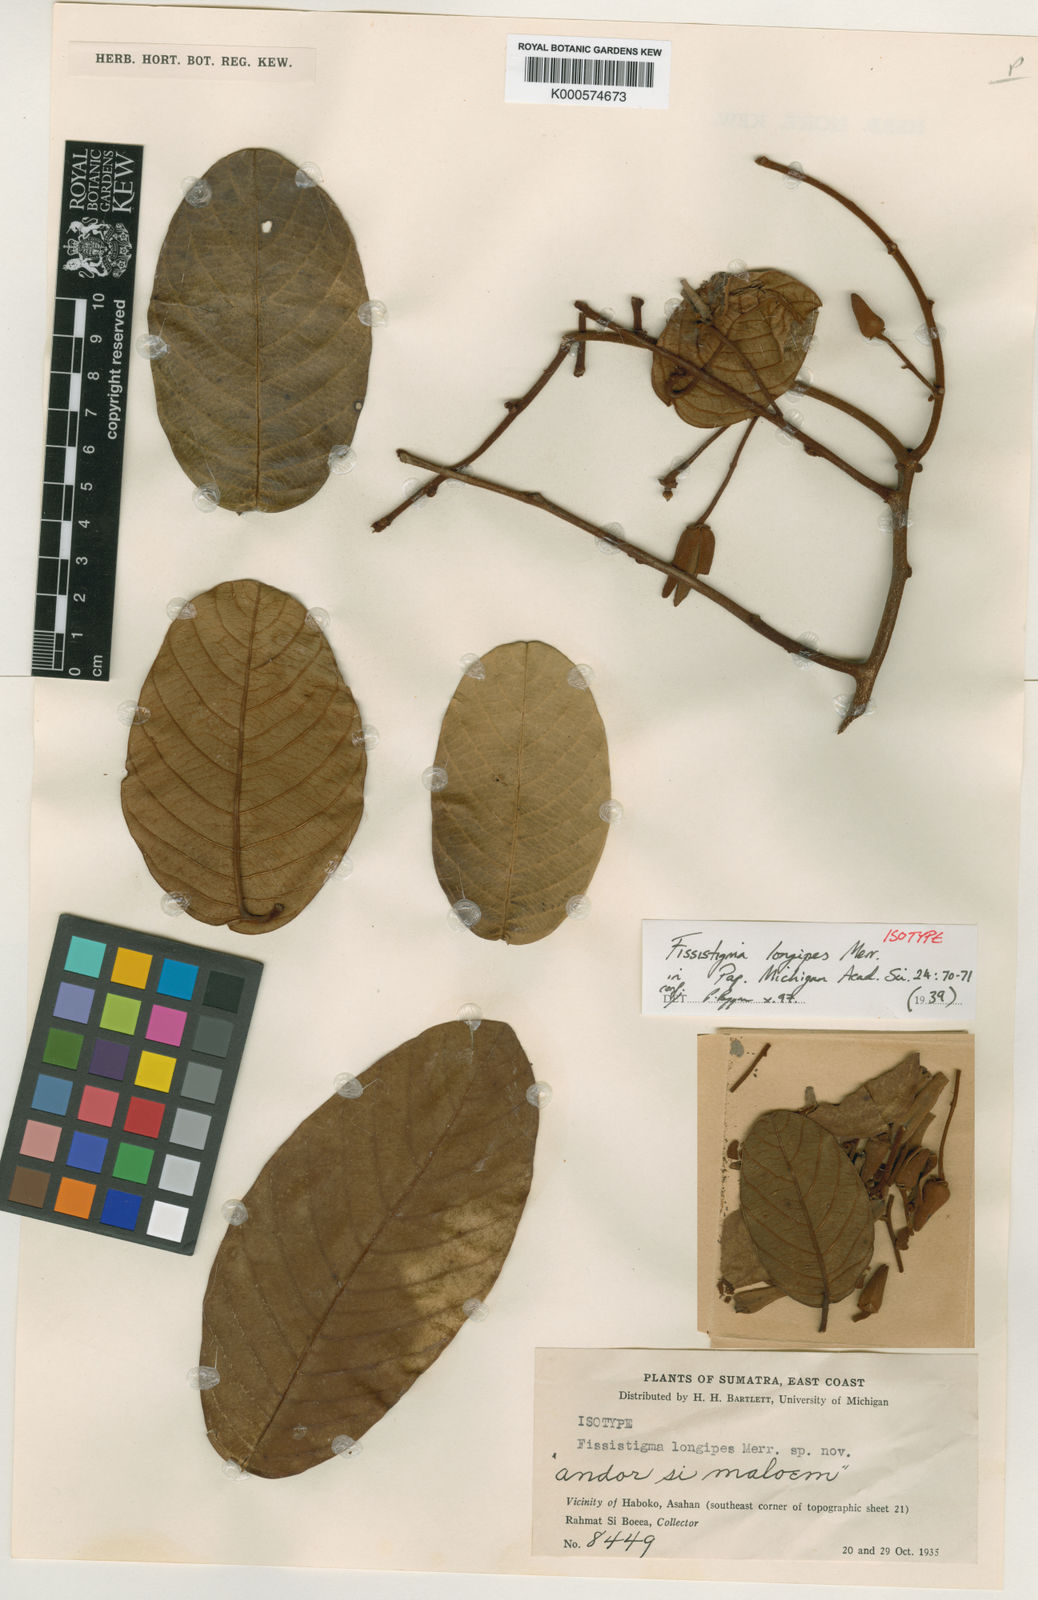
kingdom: Plantae
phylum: Tracheophyta
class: Magnoliopsida
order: Magnoliales
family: Annonaceae
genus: Fissistigma
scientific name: Fissistigma longipes
